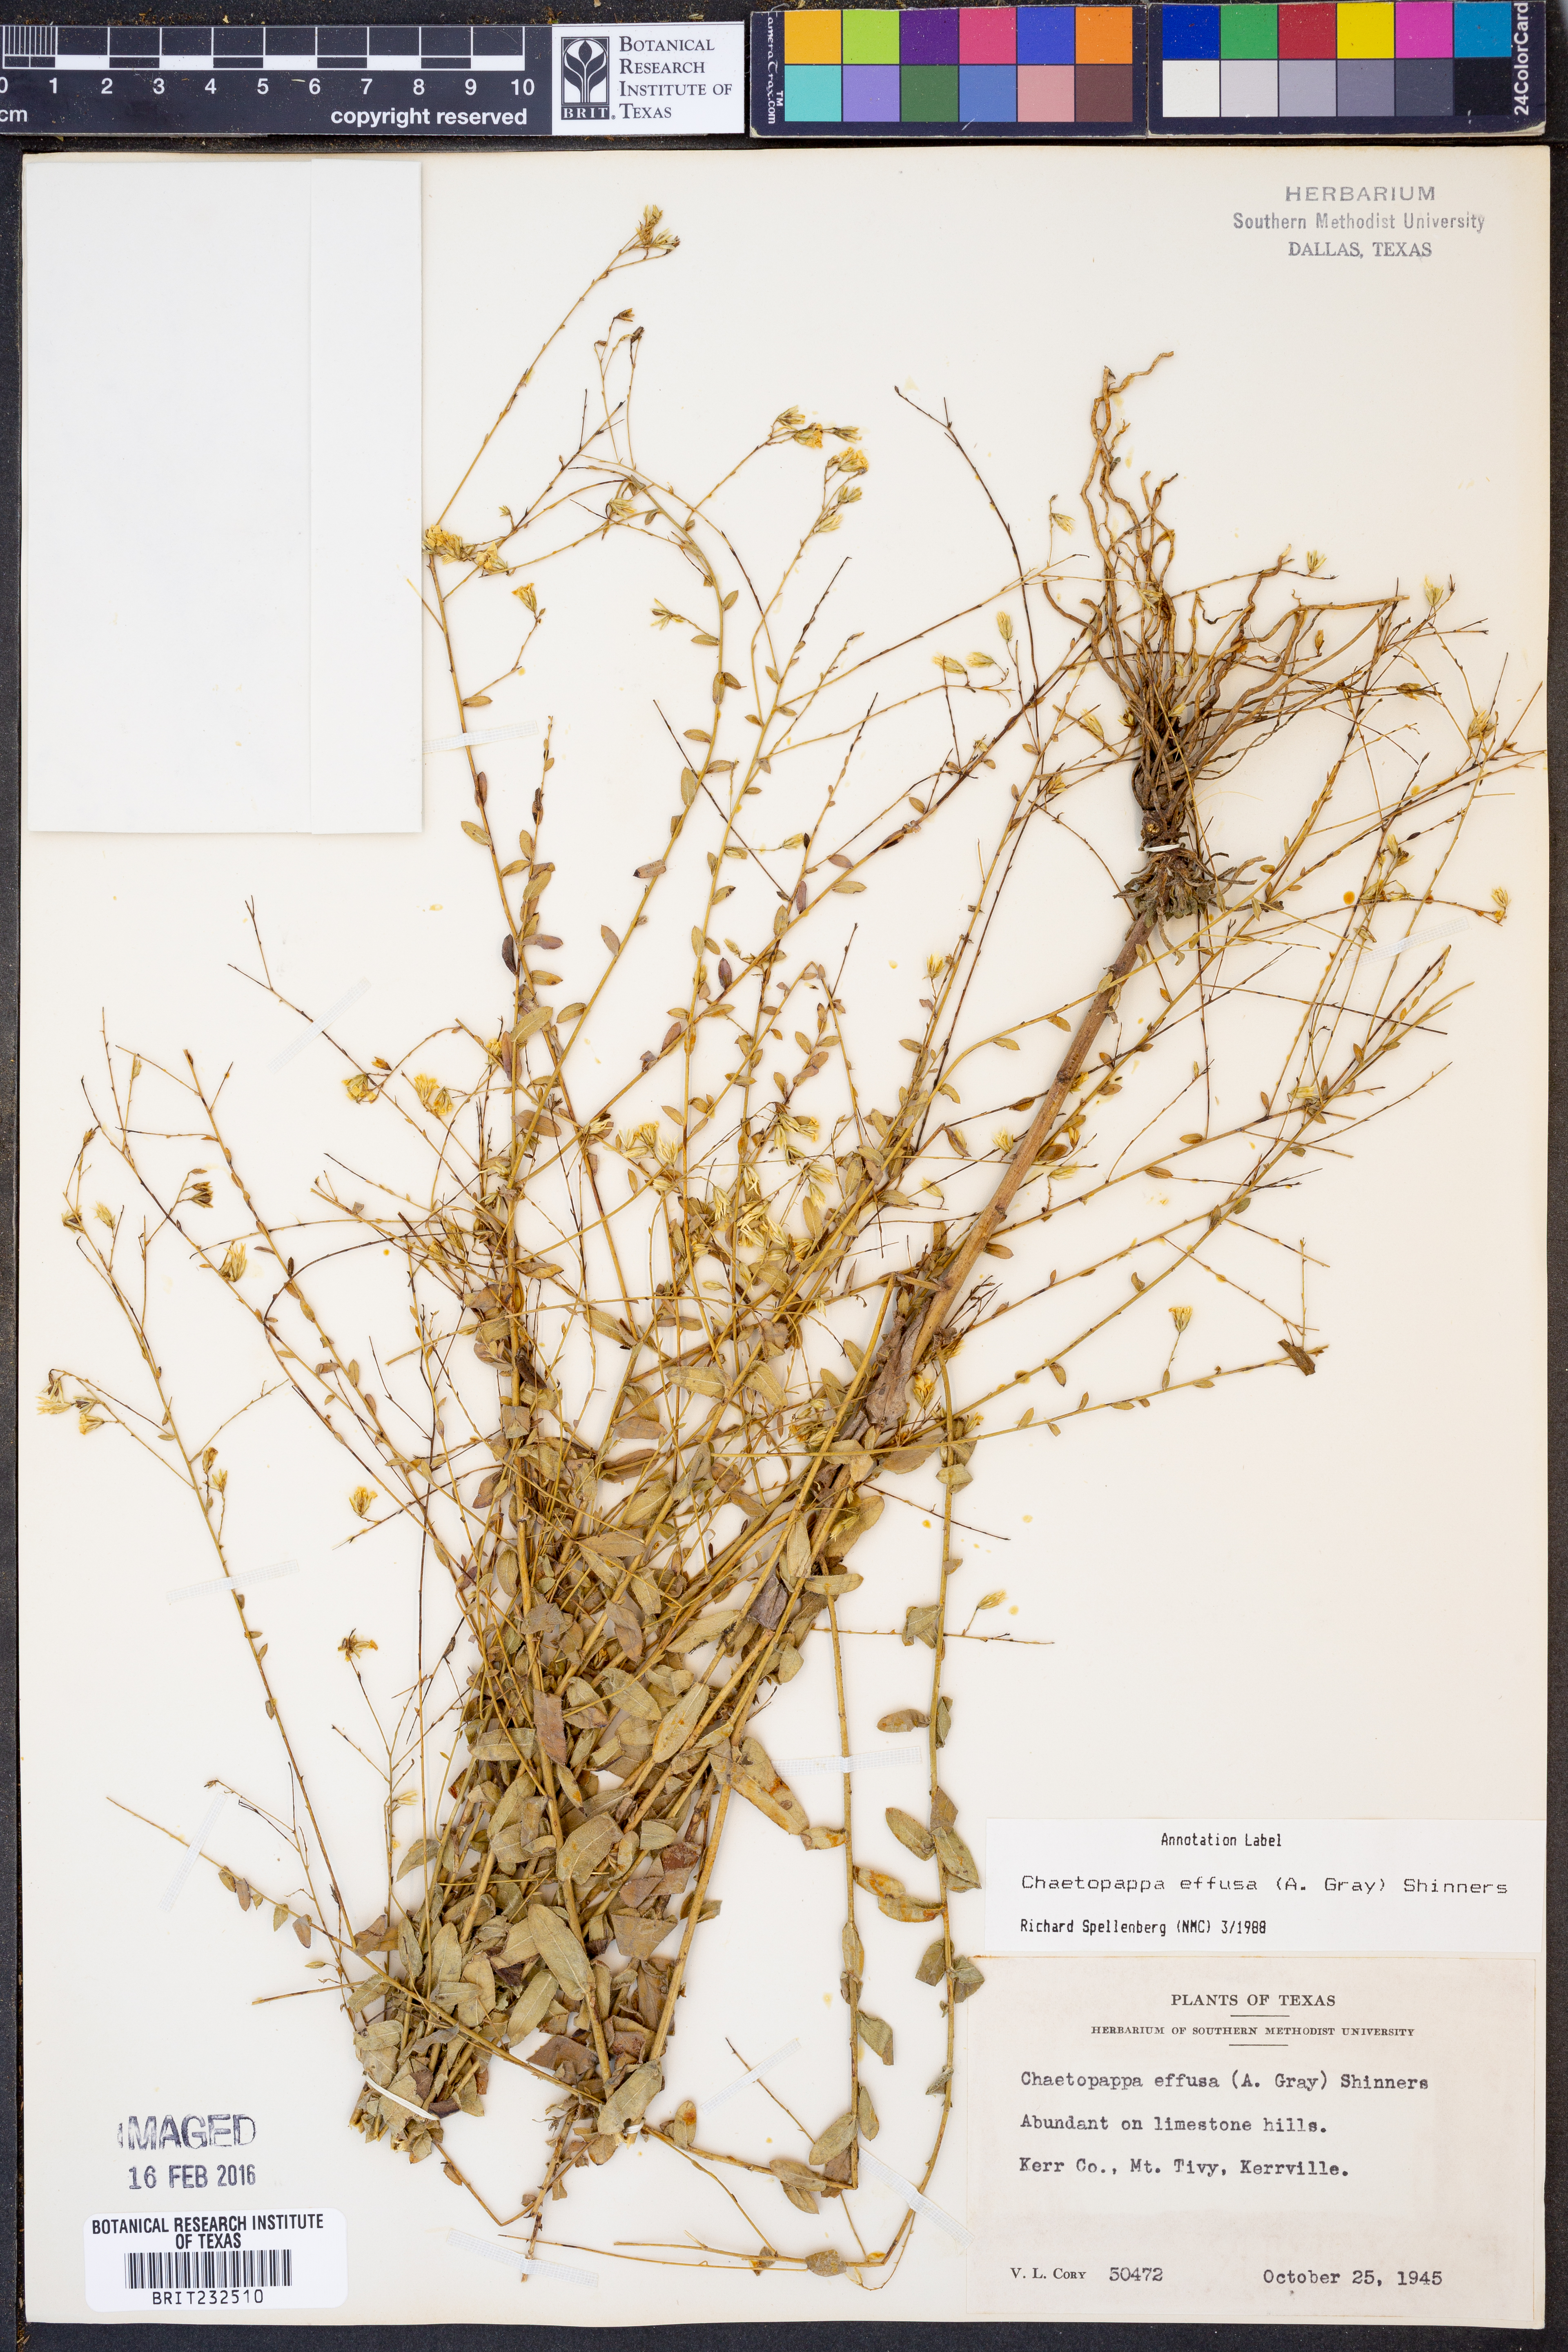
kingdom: Plantae
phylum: Tracheophyta
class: Magnoliopsida
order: Asterales
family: Asteraceae
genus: Chaetopappa
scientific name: Chaetopappa effusa
